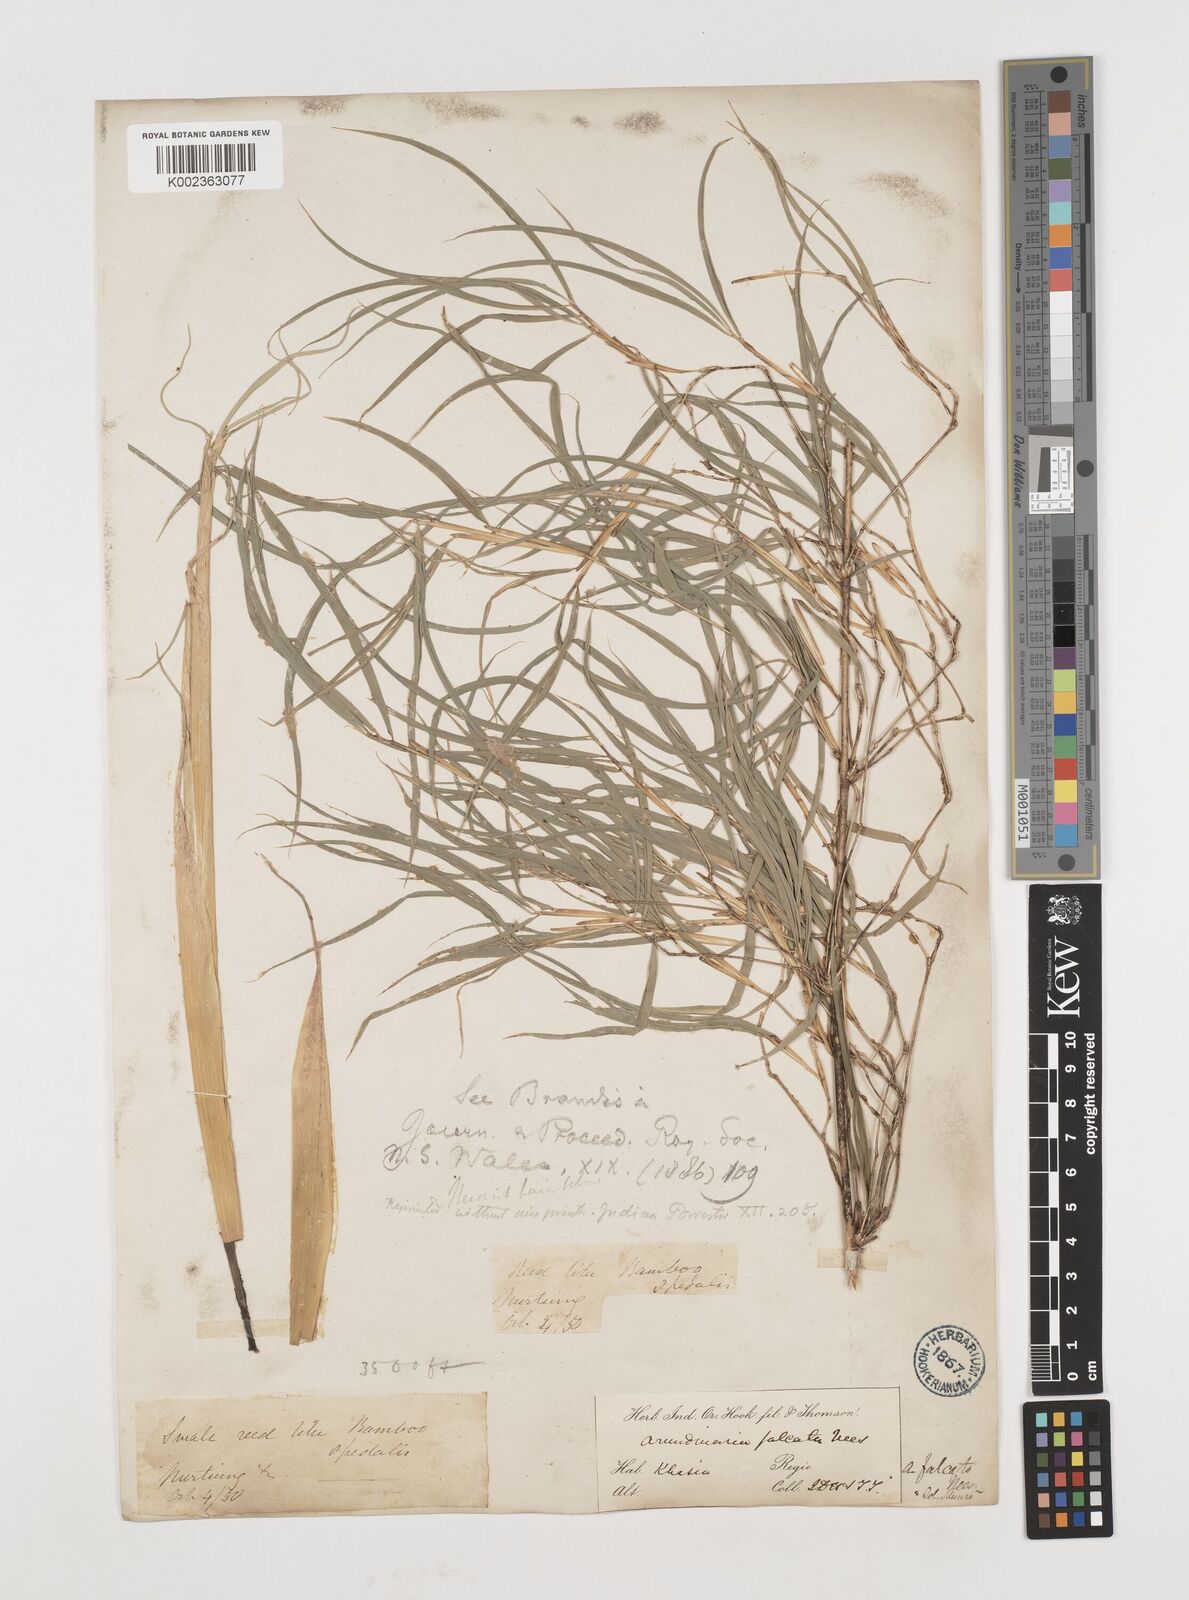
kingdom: Plantae
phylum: Tracheophyta
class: Liliopsida
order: Poales
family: Poaceae
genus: Drepanostachyum
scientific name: Drepanostachyum
